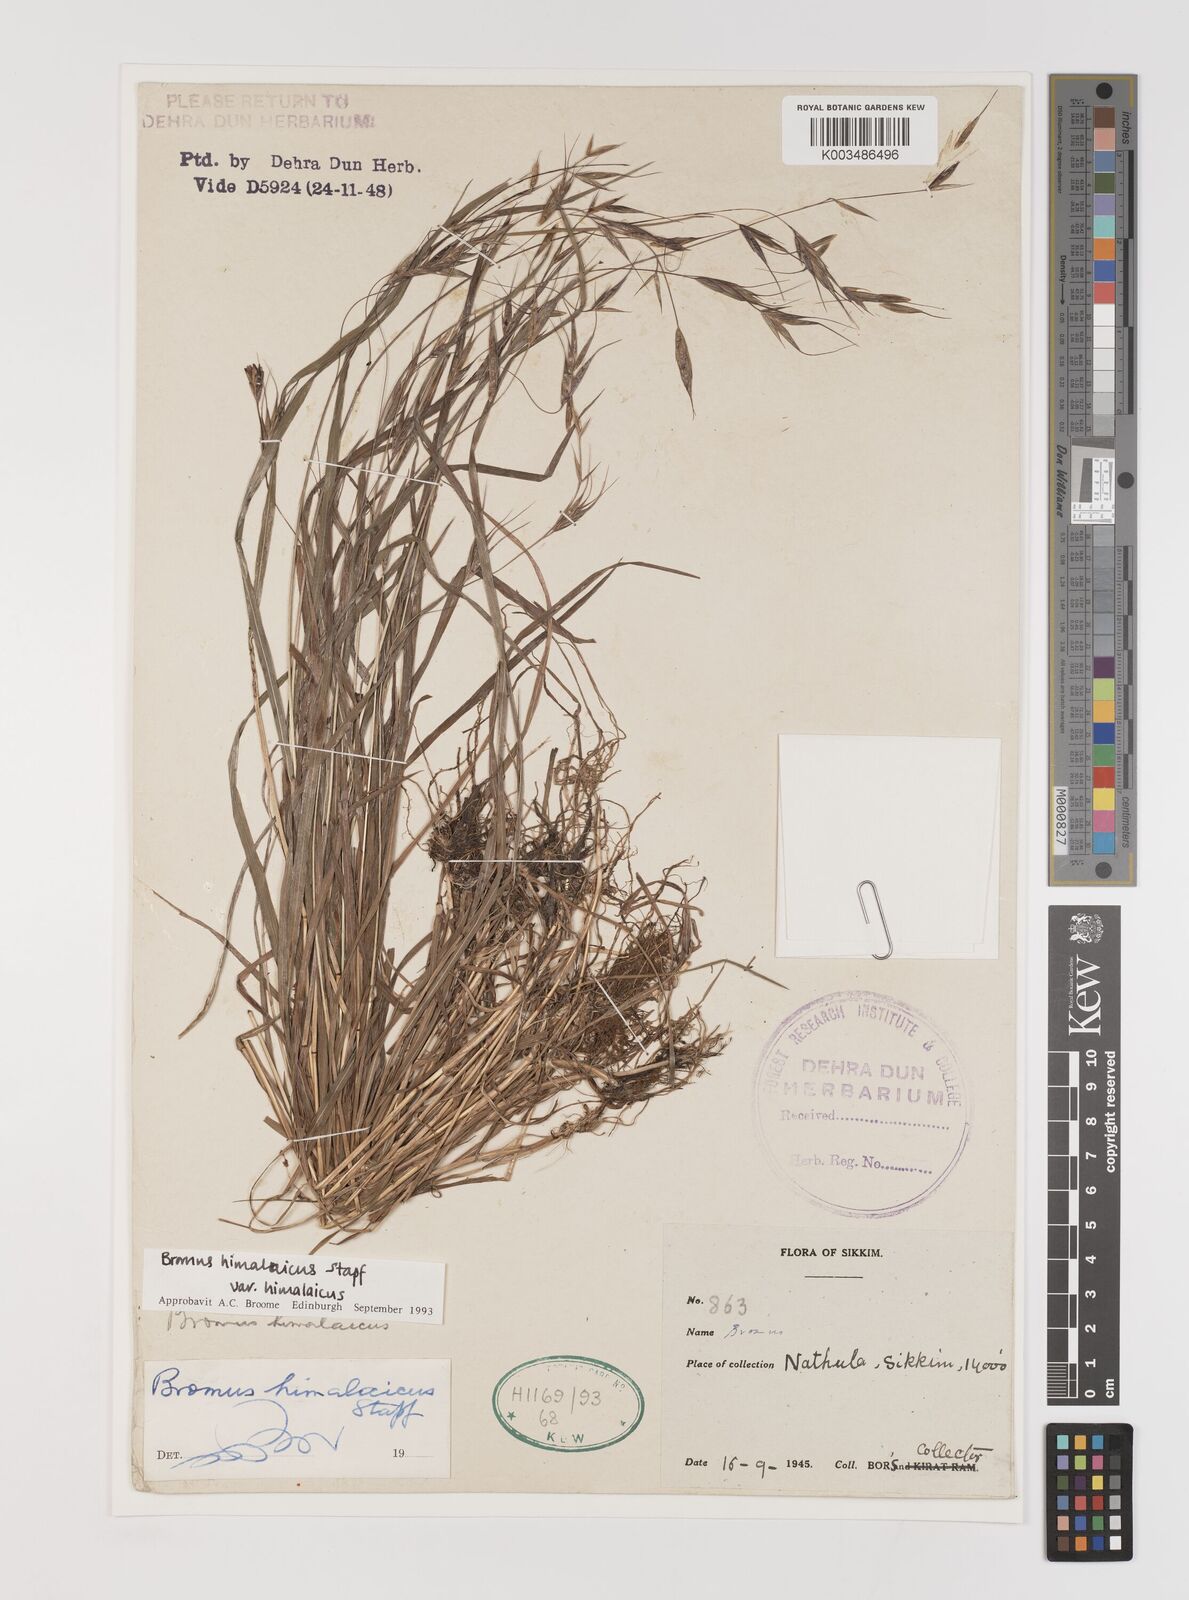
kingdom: Plantae
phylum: Tracheophyta
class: Liliopsida
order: Poales
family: Poaceae
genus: Bromus
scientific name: Bromus himalaicus
